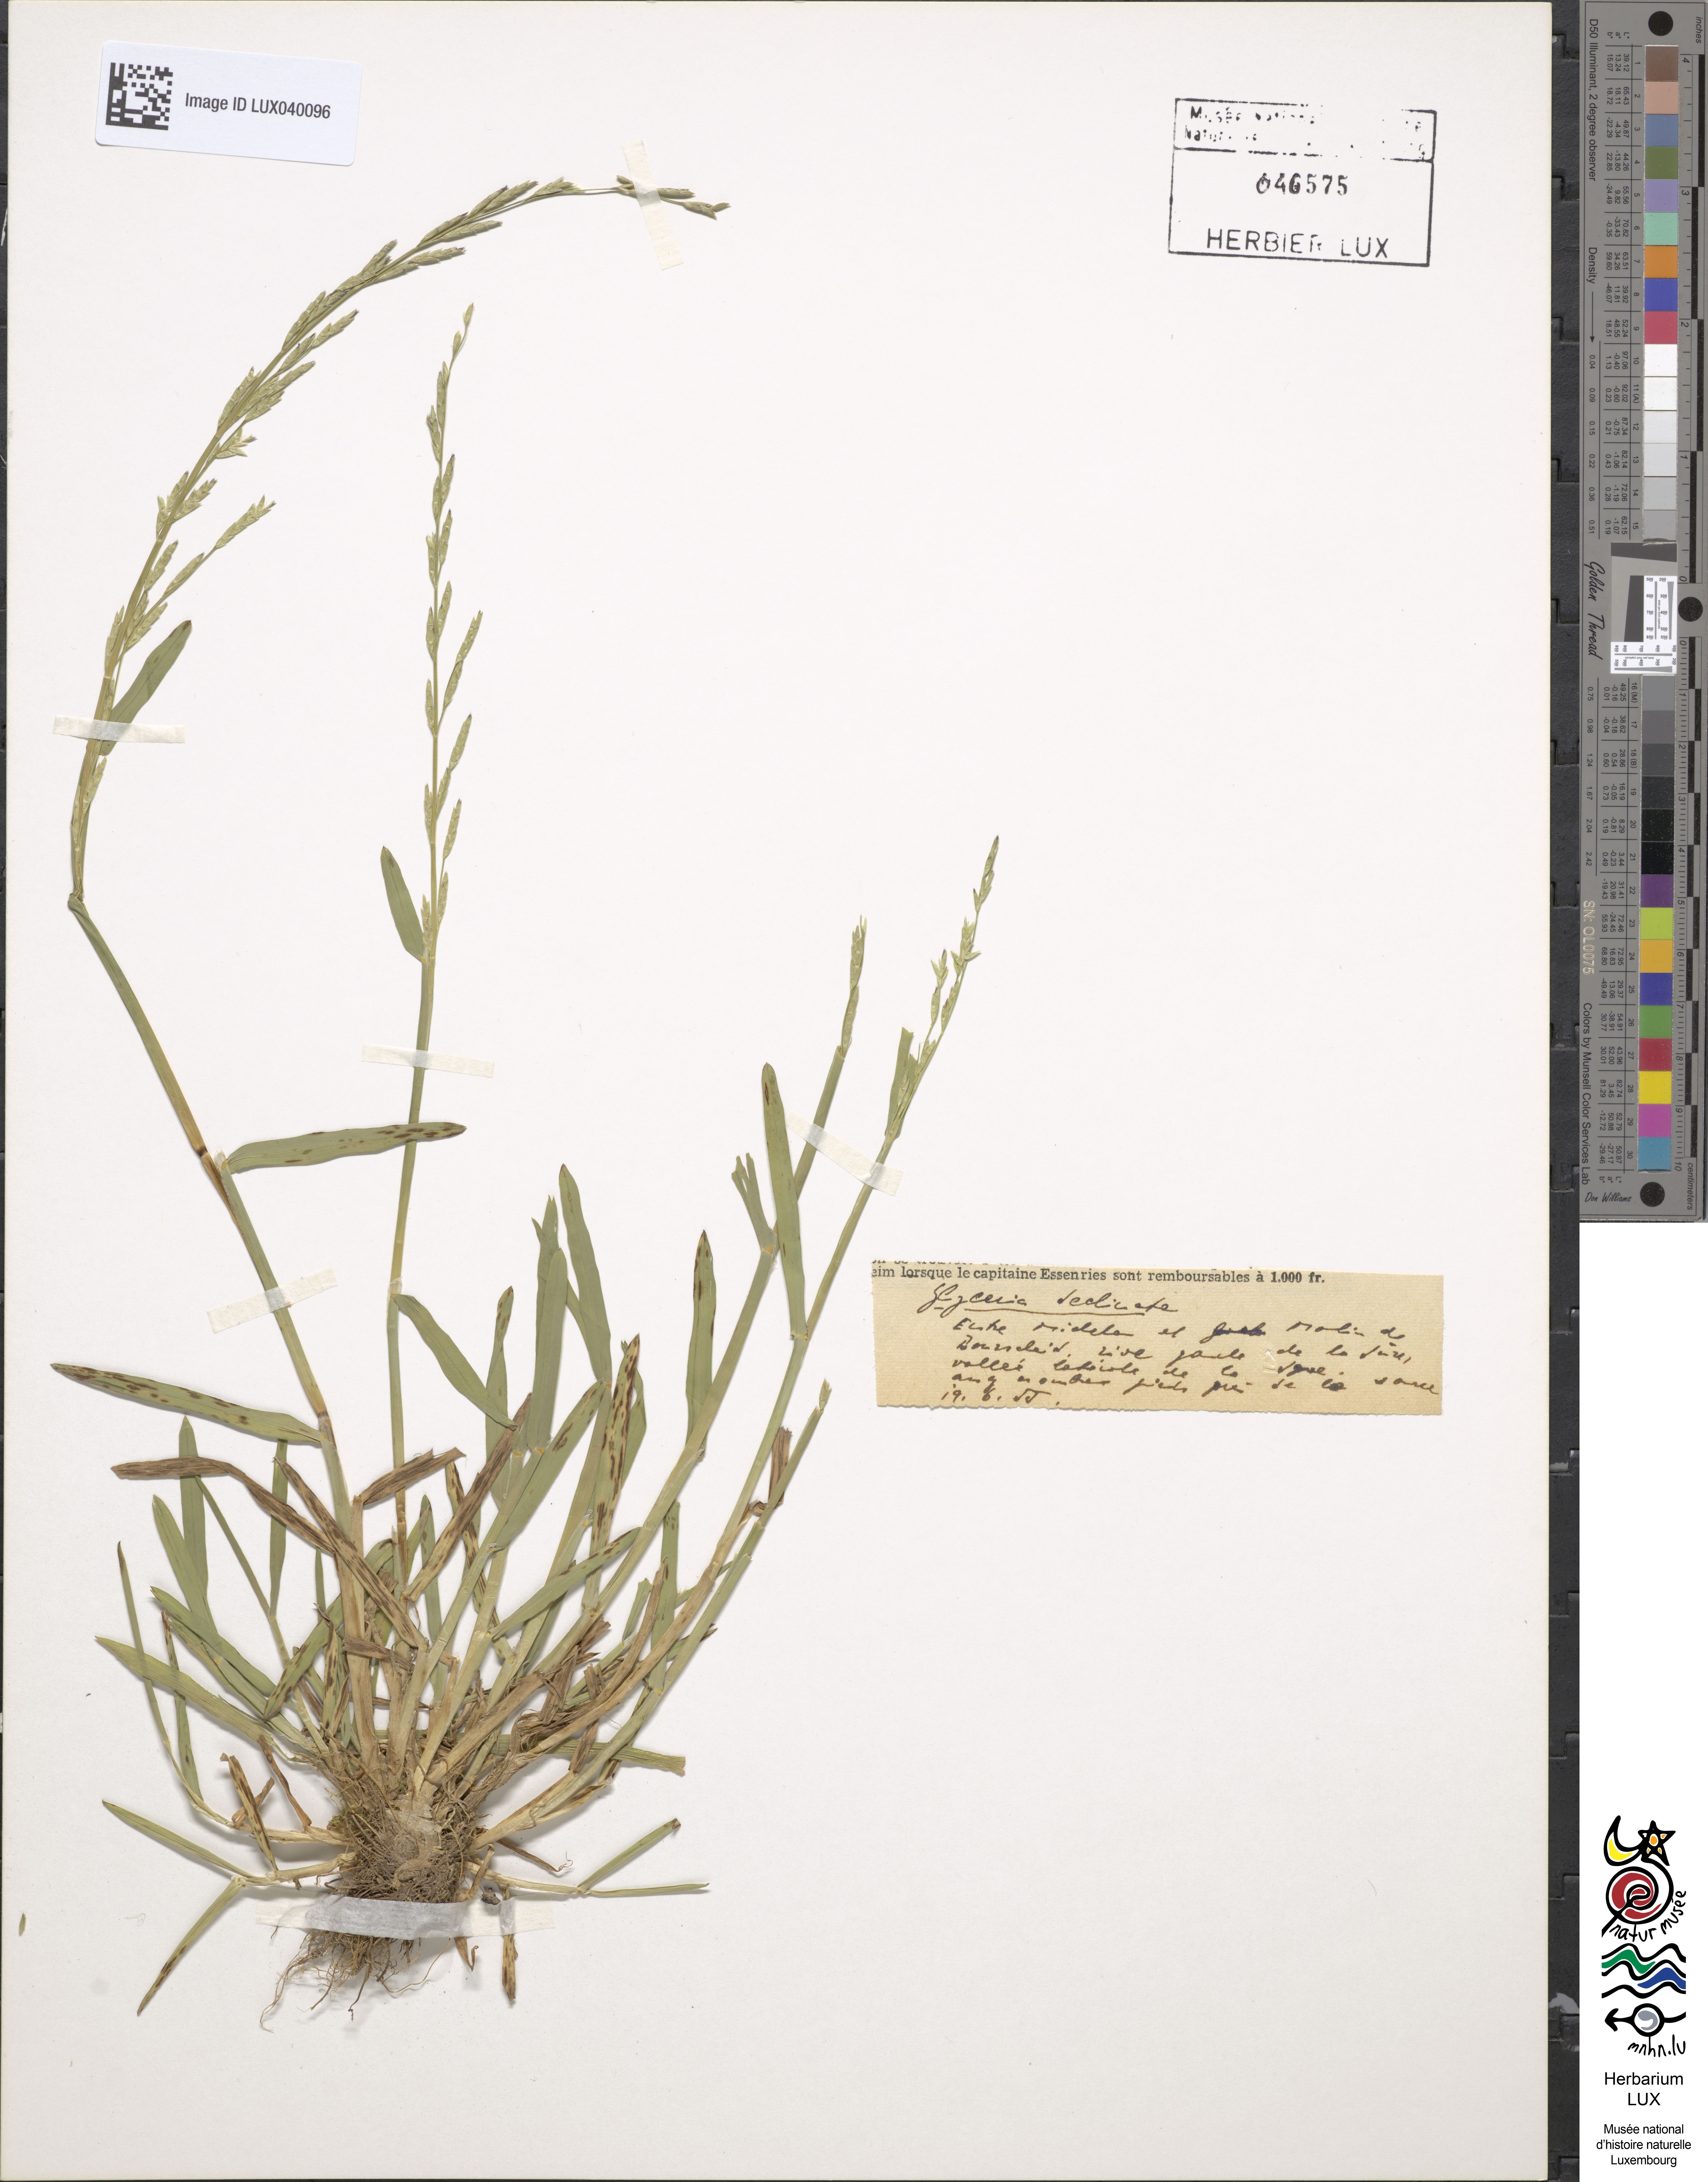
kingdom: Plantae
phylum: Tracheophyta
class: Liliopsida
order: Poales
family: Poaceae
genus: Glyceria
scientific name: Glyceria declinata
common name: Small sweet-grass
